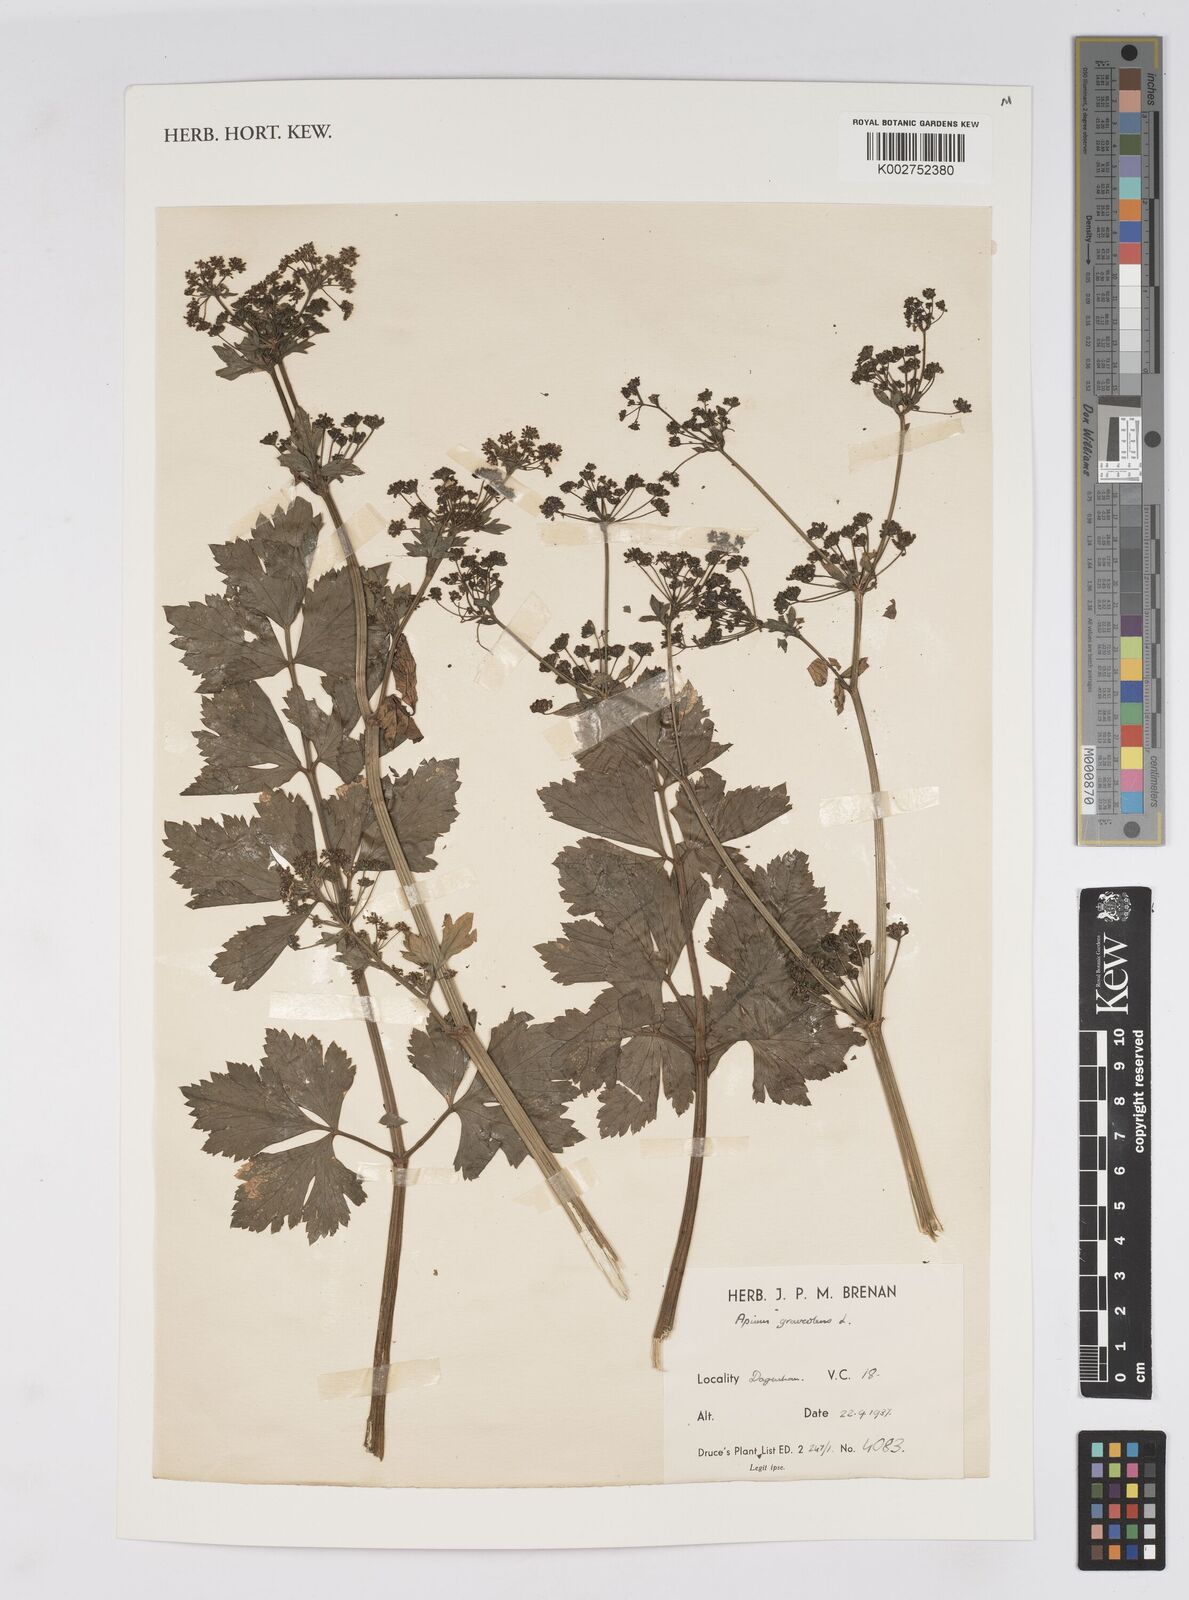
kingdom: Plantae
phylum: Tracheophyta
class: Magnoliopsida
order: Apiales
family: Apiaceae
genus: Apium
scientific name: Apium graveolens
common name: Wild celery
